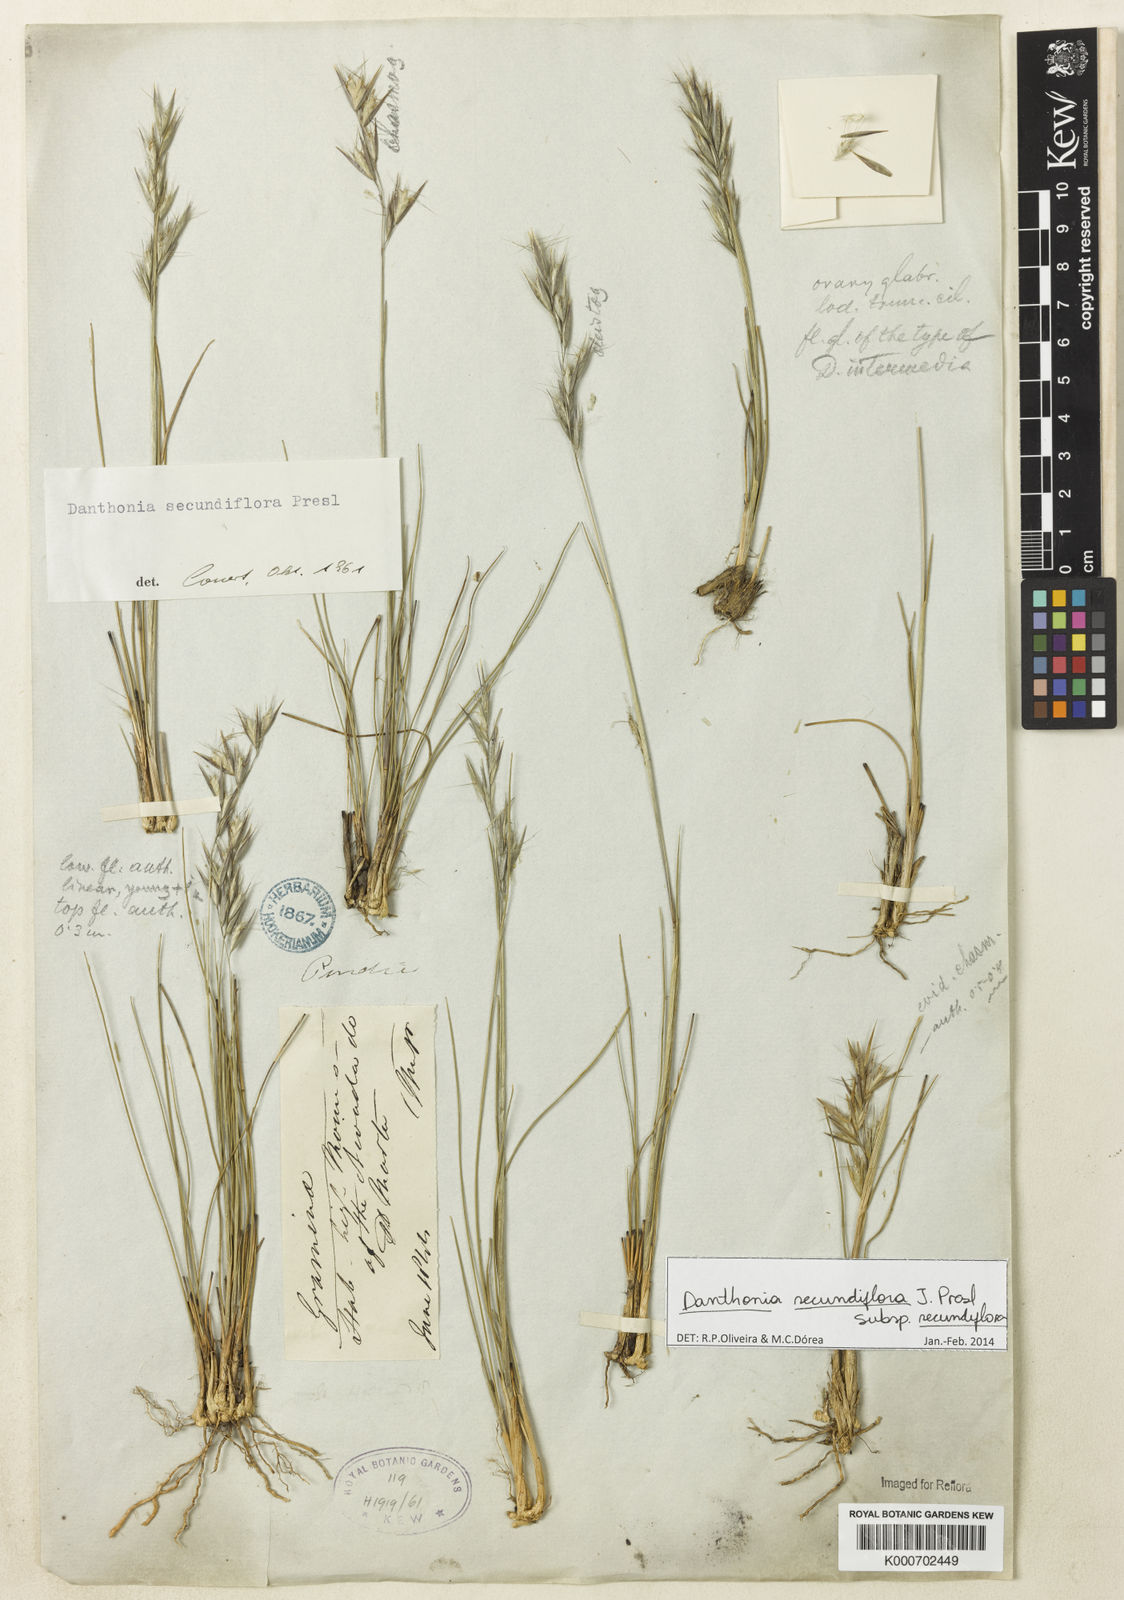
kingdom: Plantae
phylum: Tracheophyta
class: Liliopsida
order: Poales
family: Poaceae
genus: Danthonia
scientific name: Danthonia secundiflora
